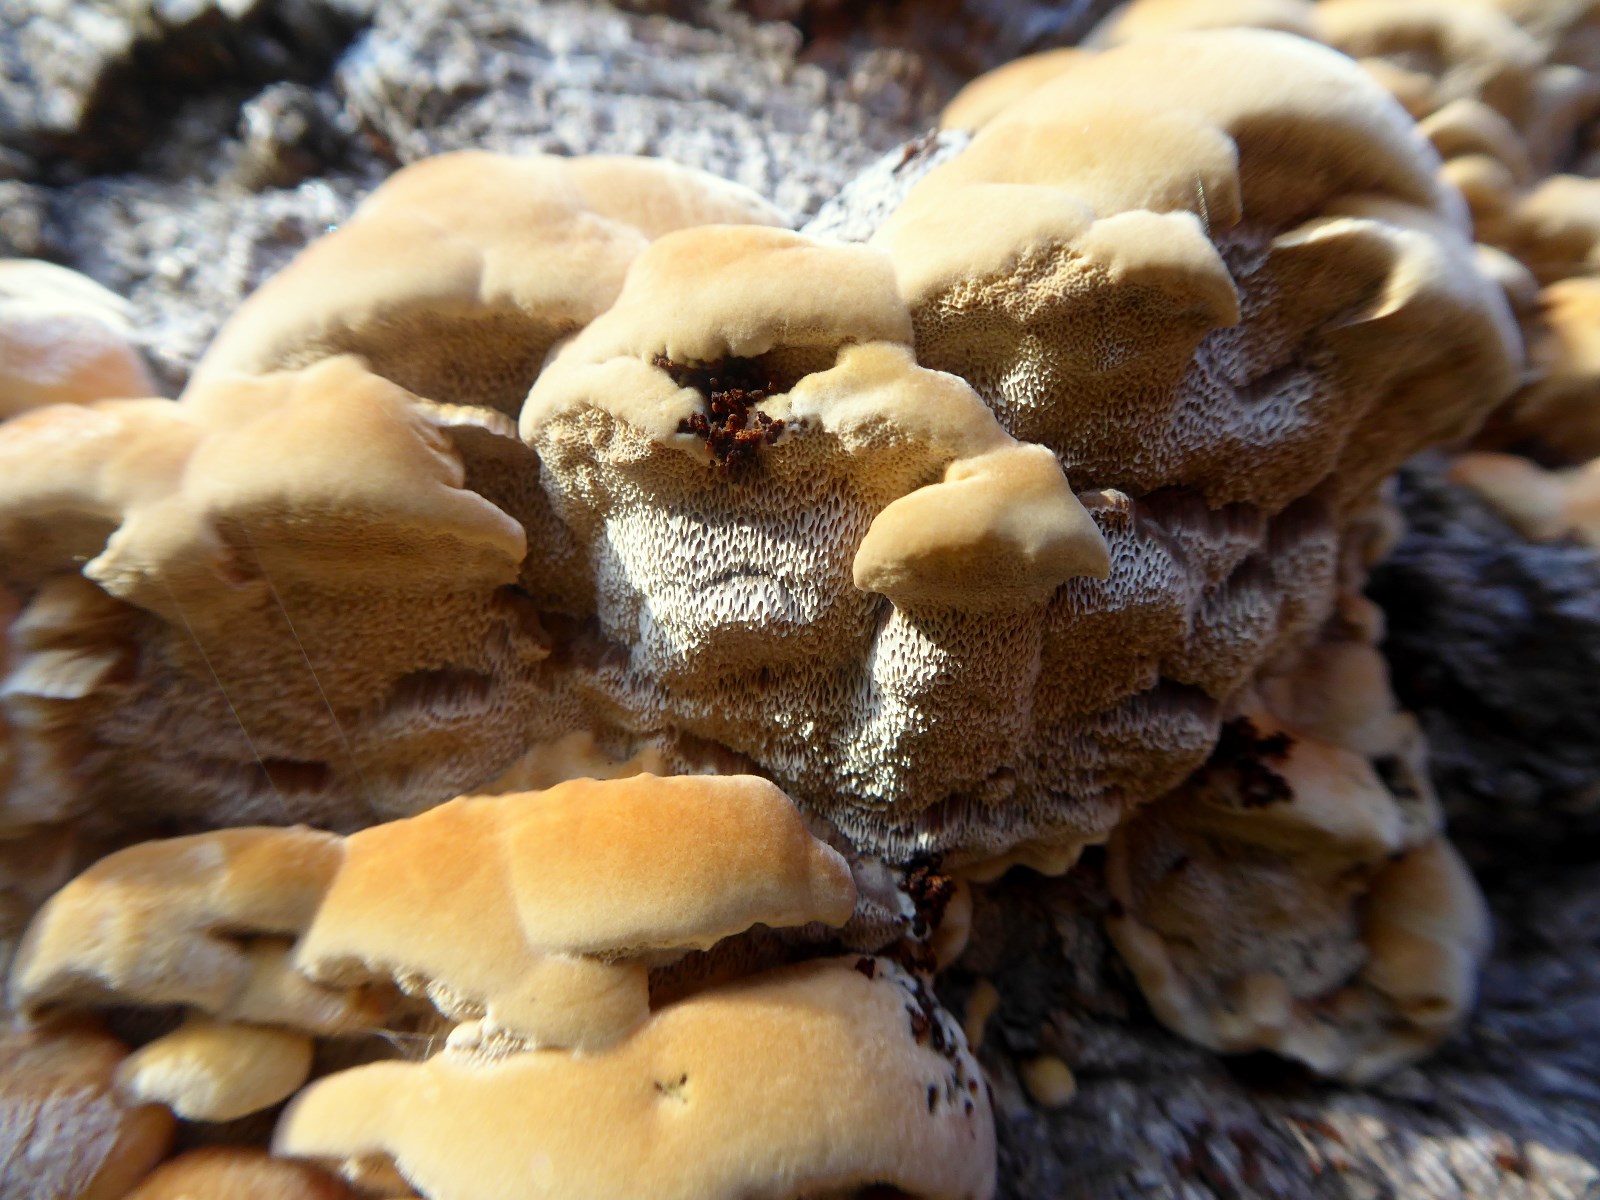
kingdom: Fungi
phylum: Basidiomycota
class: Agaricomycetes
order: Hymenochaetales
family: Hymenochaetaceae
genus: Mensularia
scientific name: Mensularia nodulosa
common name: bøge-spejlporesvamp
